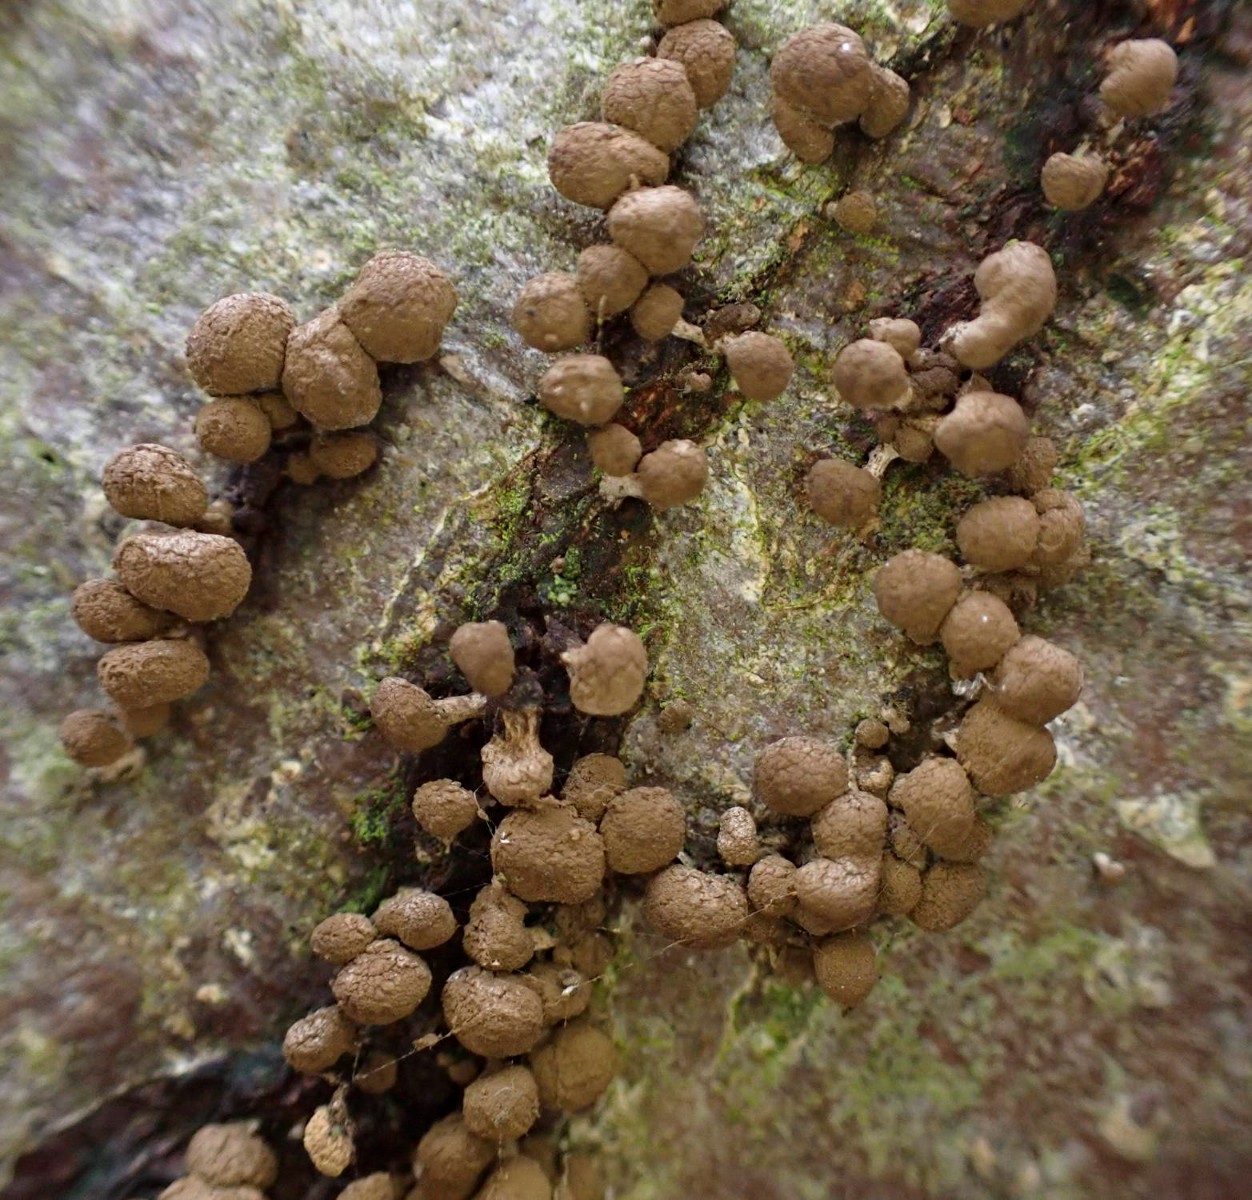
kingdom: Fungi
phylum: Basidiomycota
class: Atractiellomycetes
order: Atractiellales
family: Phleogenaceae
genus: Phleogena
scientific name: Phleogena faginea
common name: pudderkølle
